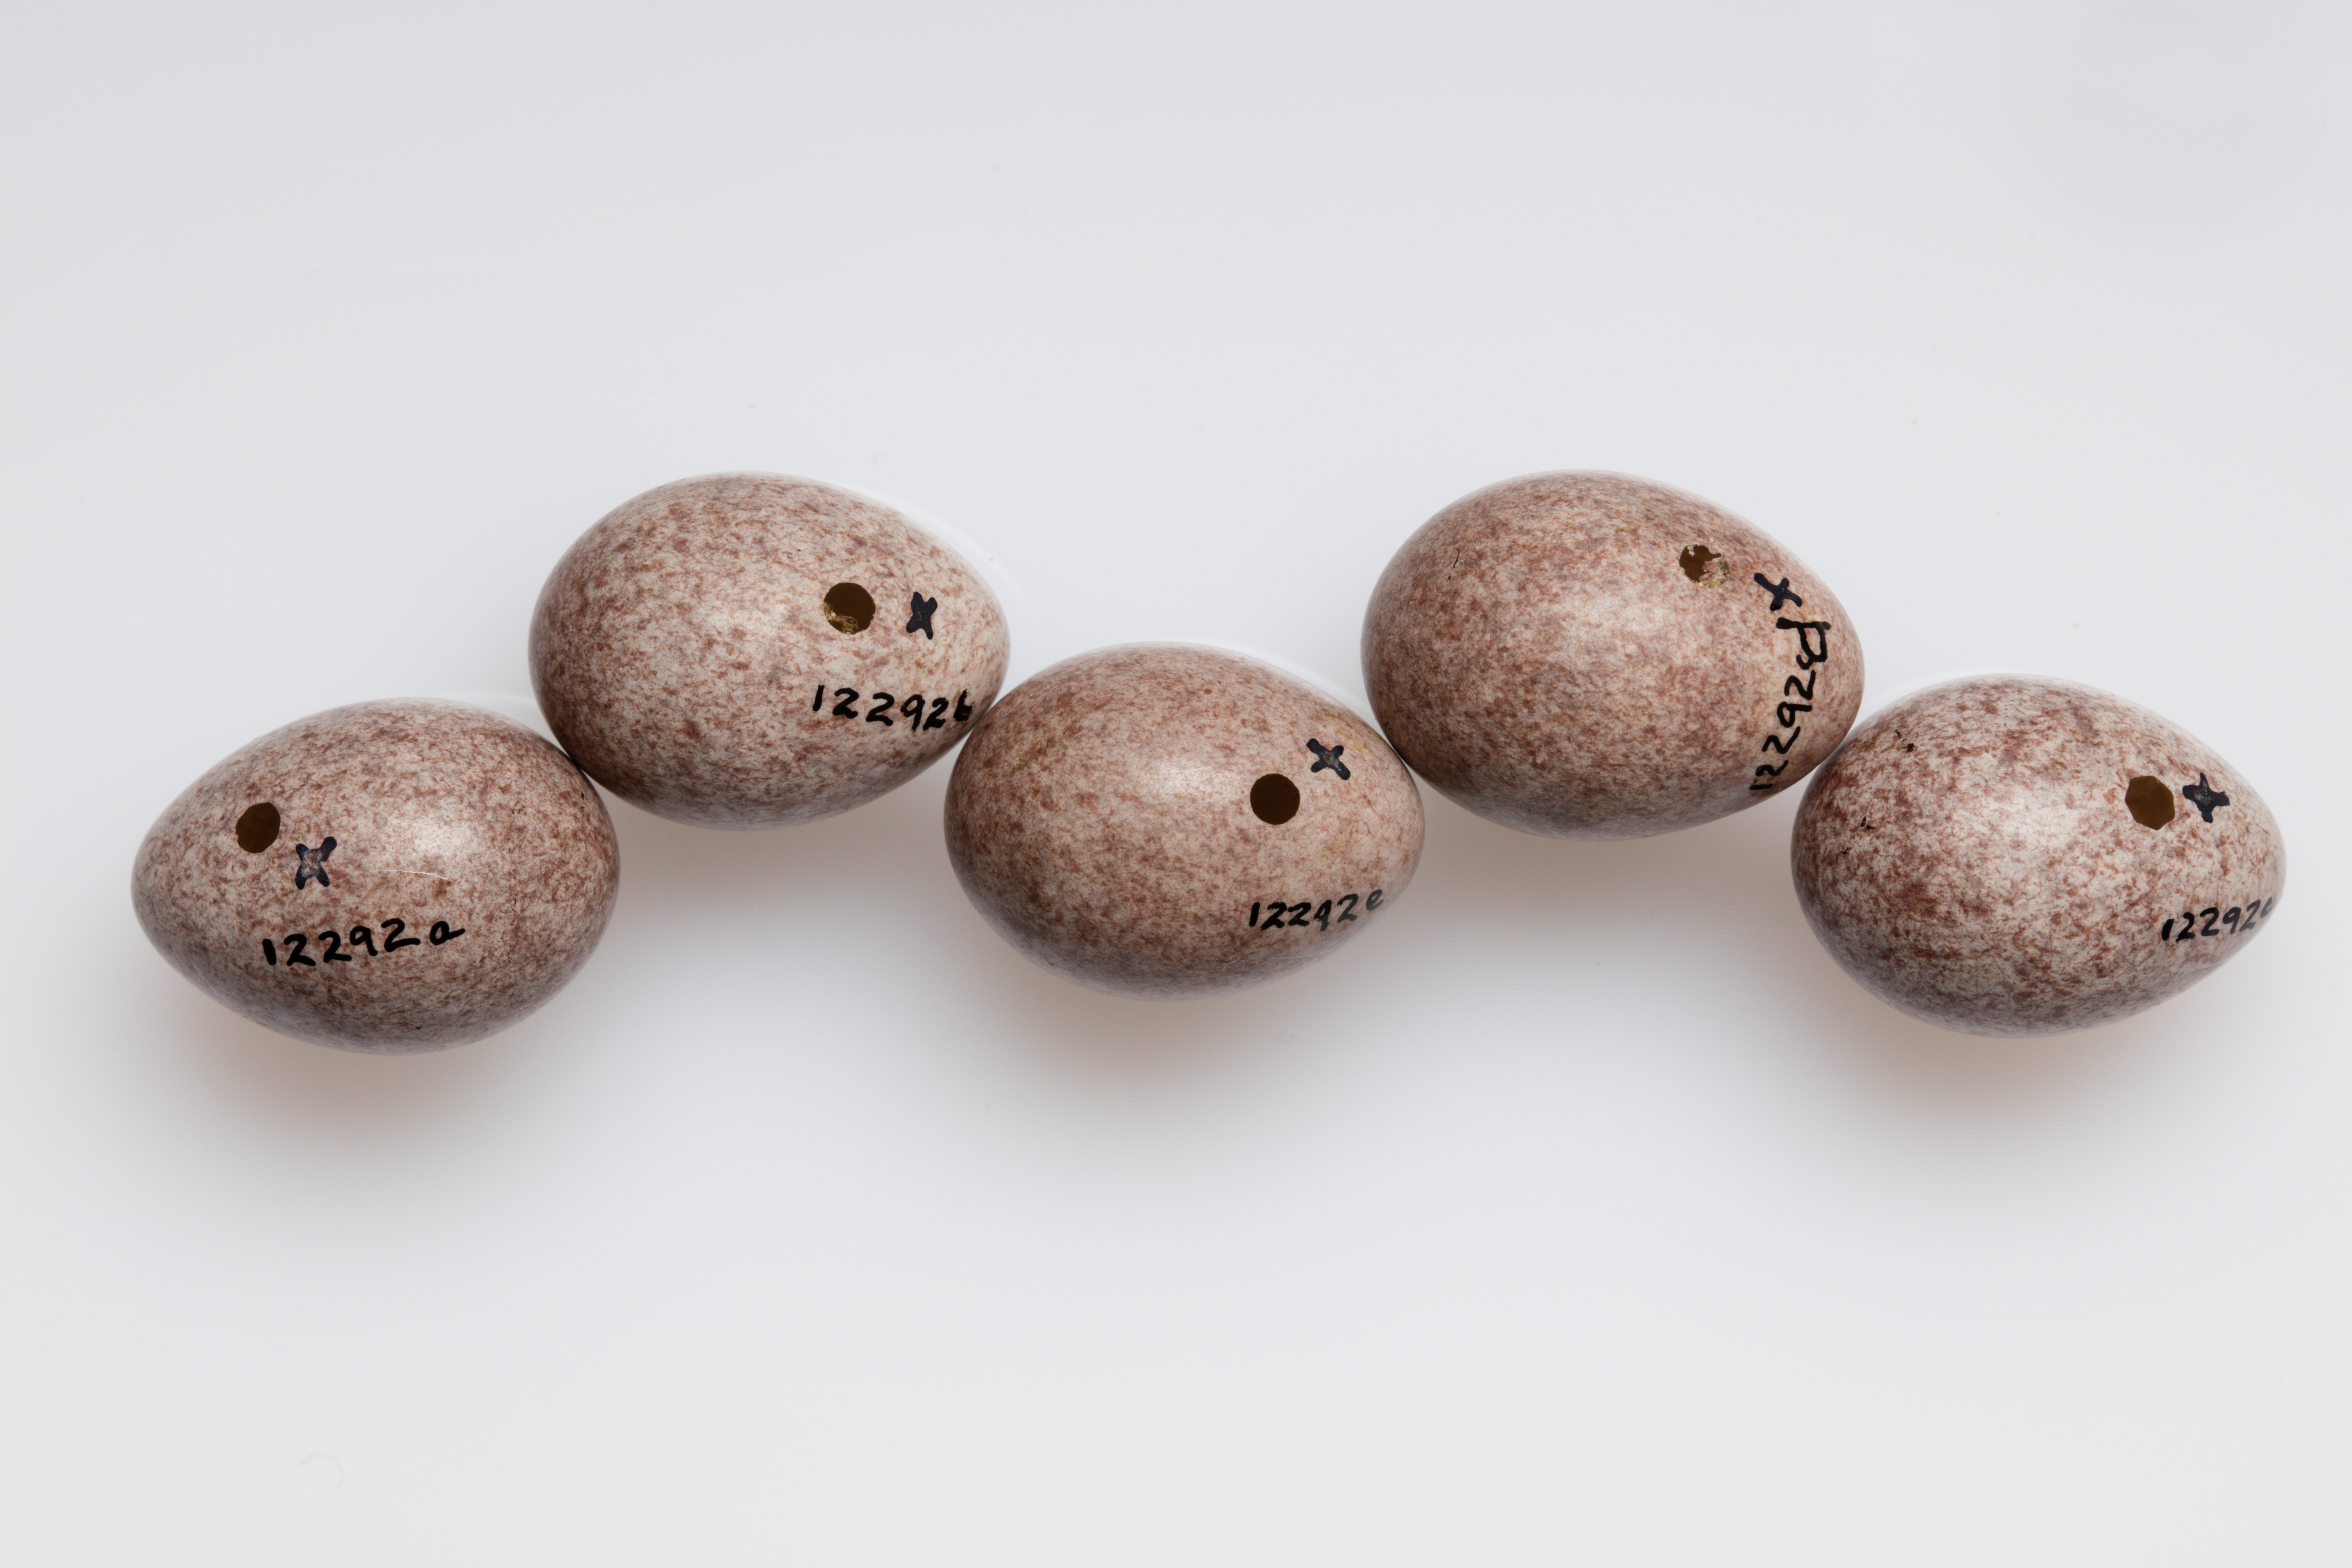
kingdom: Animalia
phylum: Chordata
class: Aves
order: Passeriformes
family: Motacillidae
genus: Anthus
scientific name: Anthus trivialis
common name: Tree pipit
